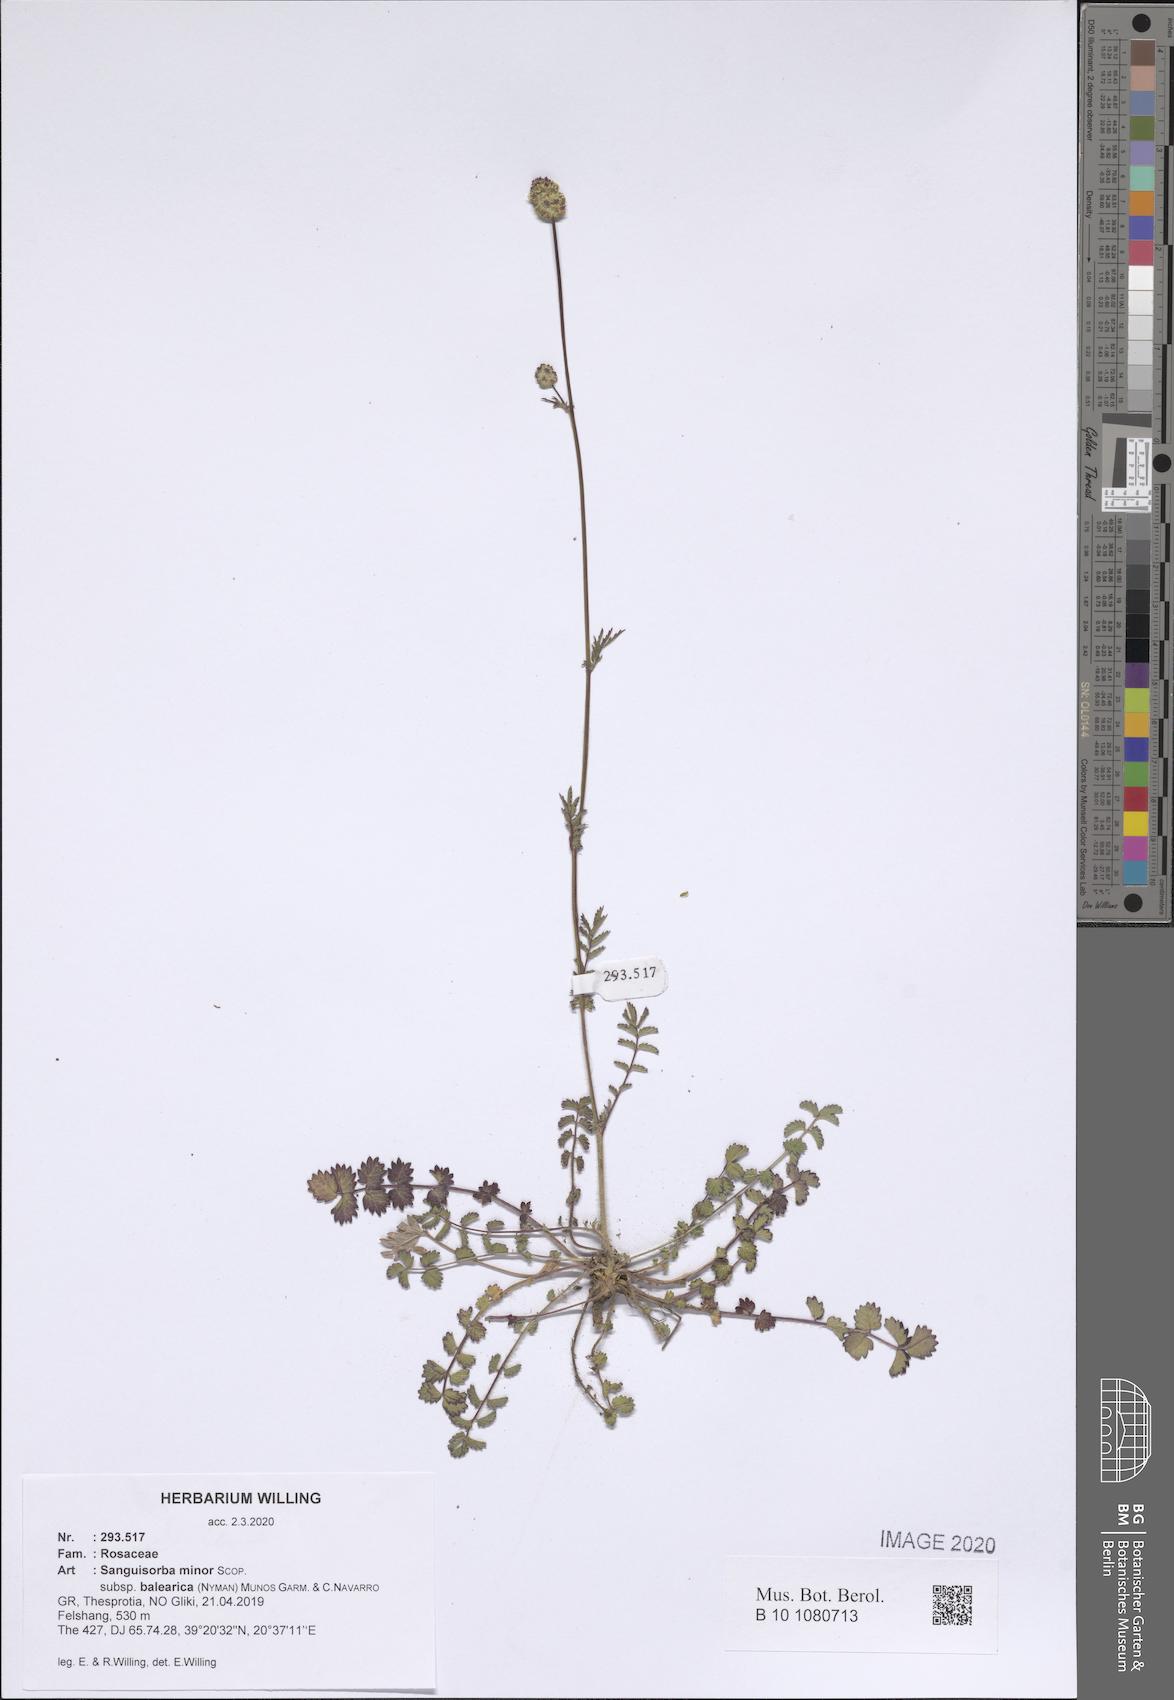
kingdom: Plantae
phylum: Tracheophyta
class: Magnoliopsida
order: Rosales
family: Rosaceae
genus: Poterium
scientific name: Poterium sanguisorba
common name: Salad burnet
